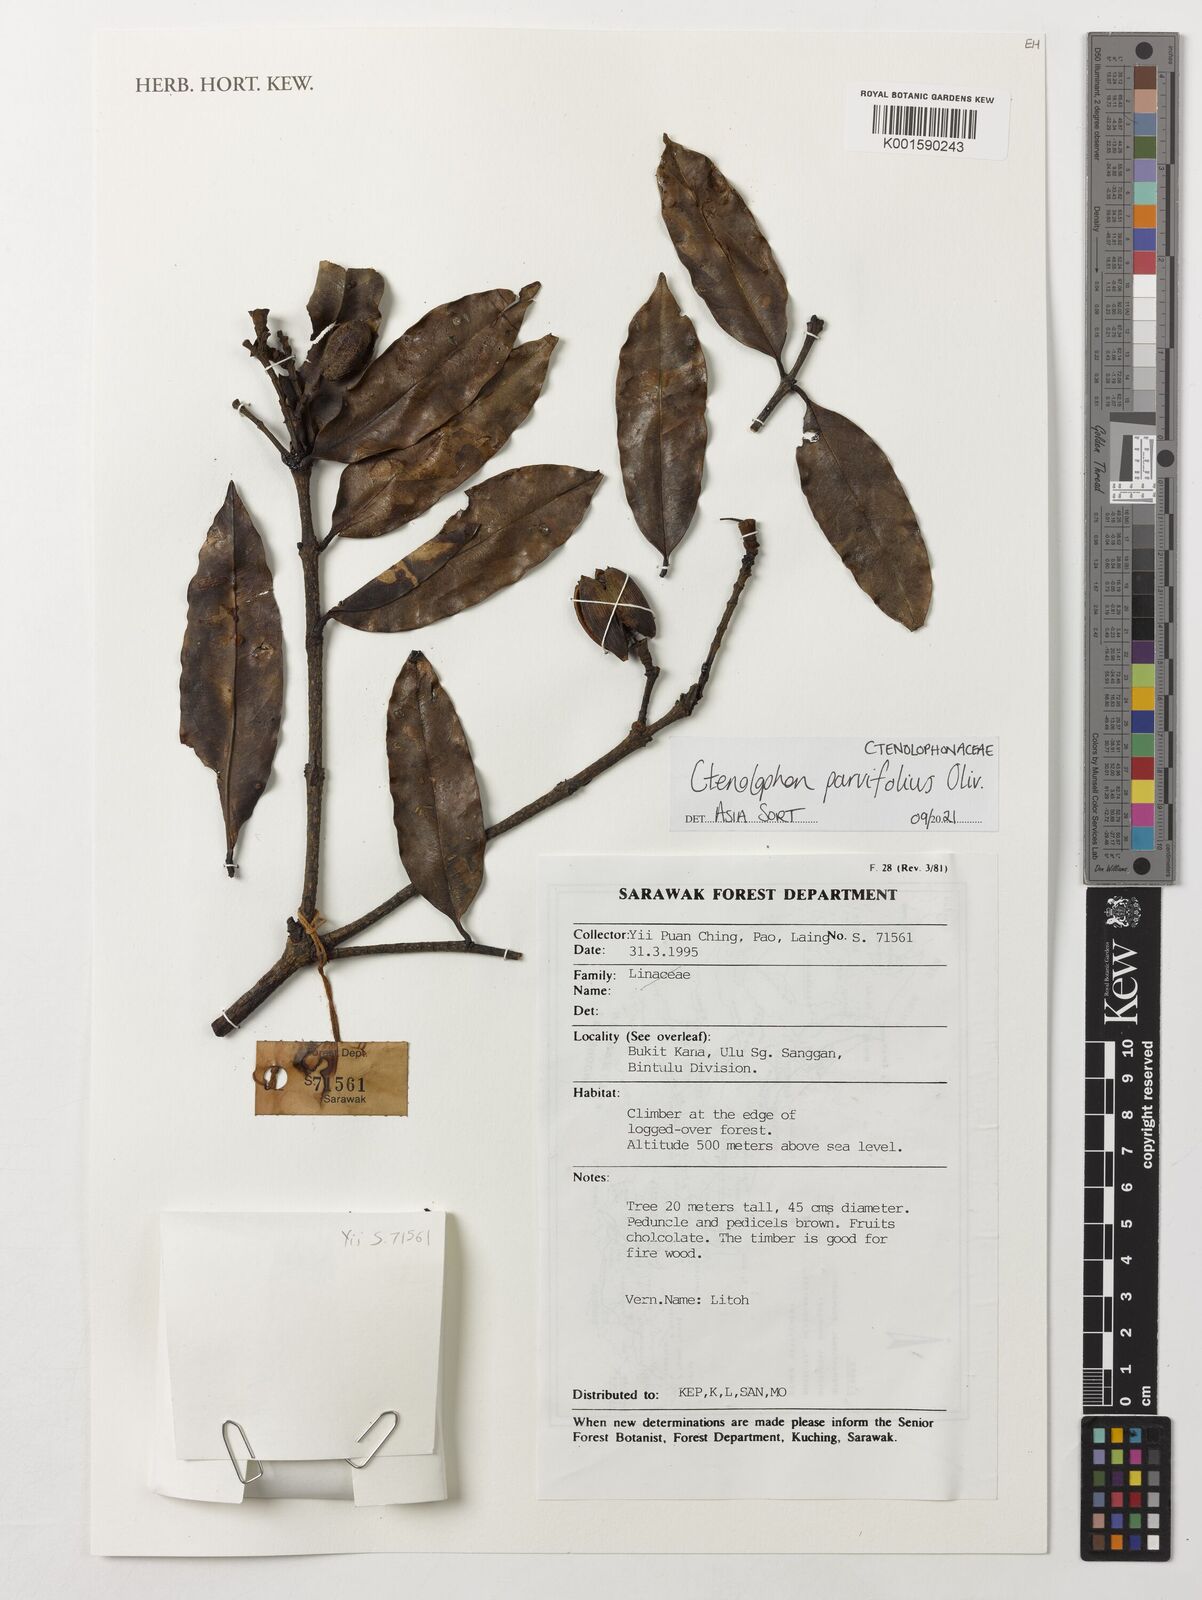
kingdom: Plantae
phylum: Tracheophyta
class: Magnoliopsida
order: Malpighiales
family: Ctenolophonaceae
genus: Ctenolophon
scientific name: Ctenolophon parvifolius
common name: Mertas
